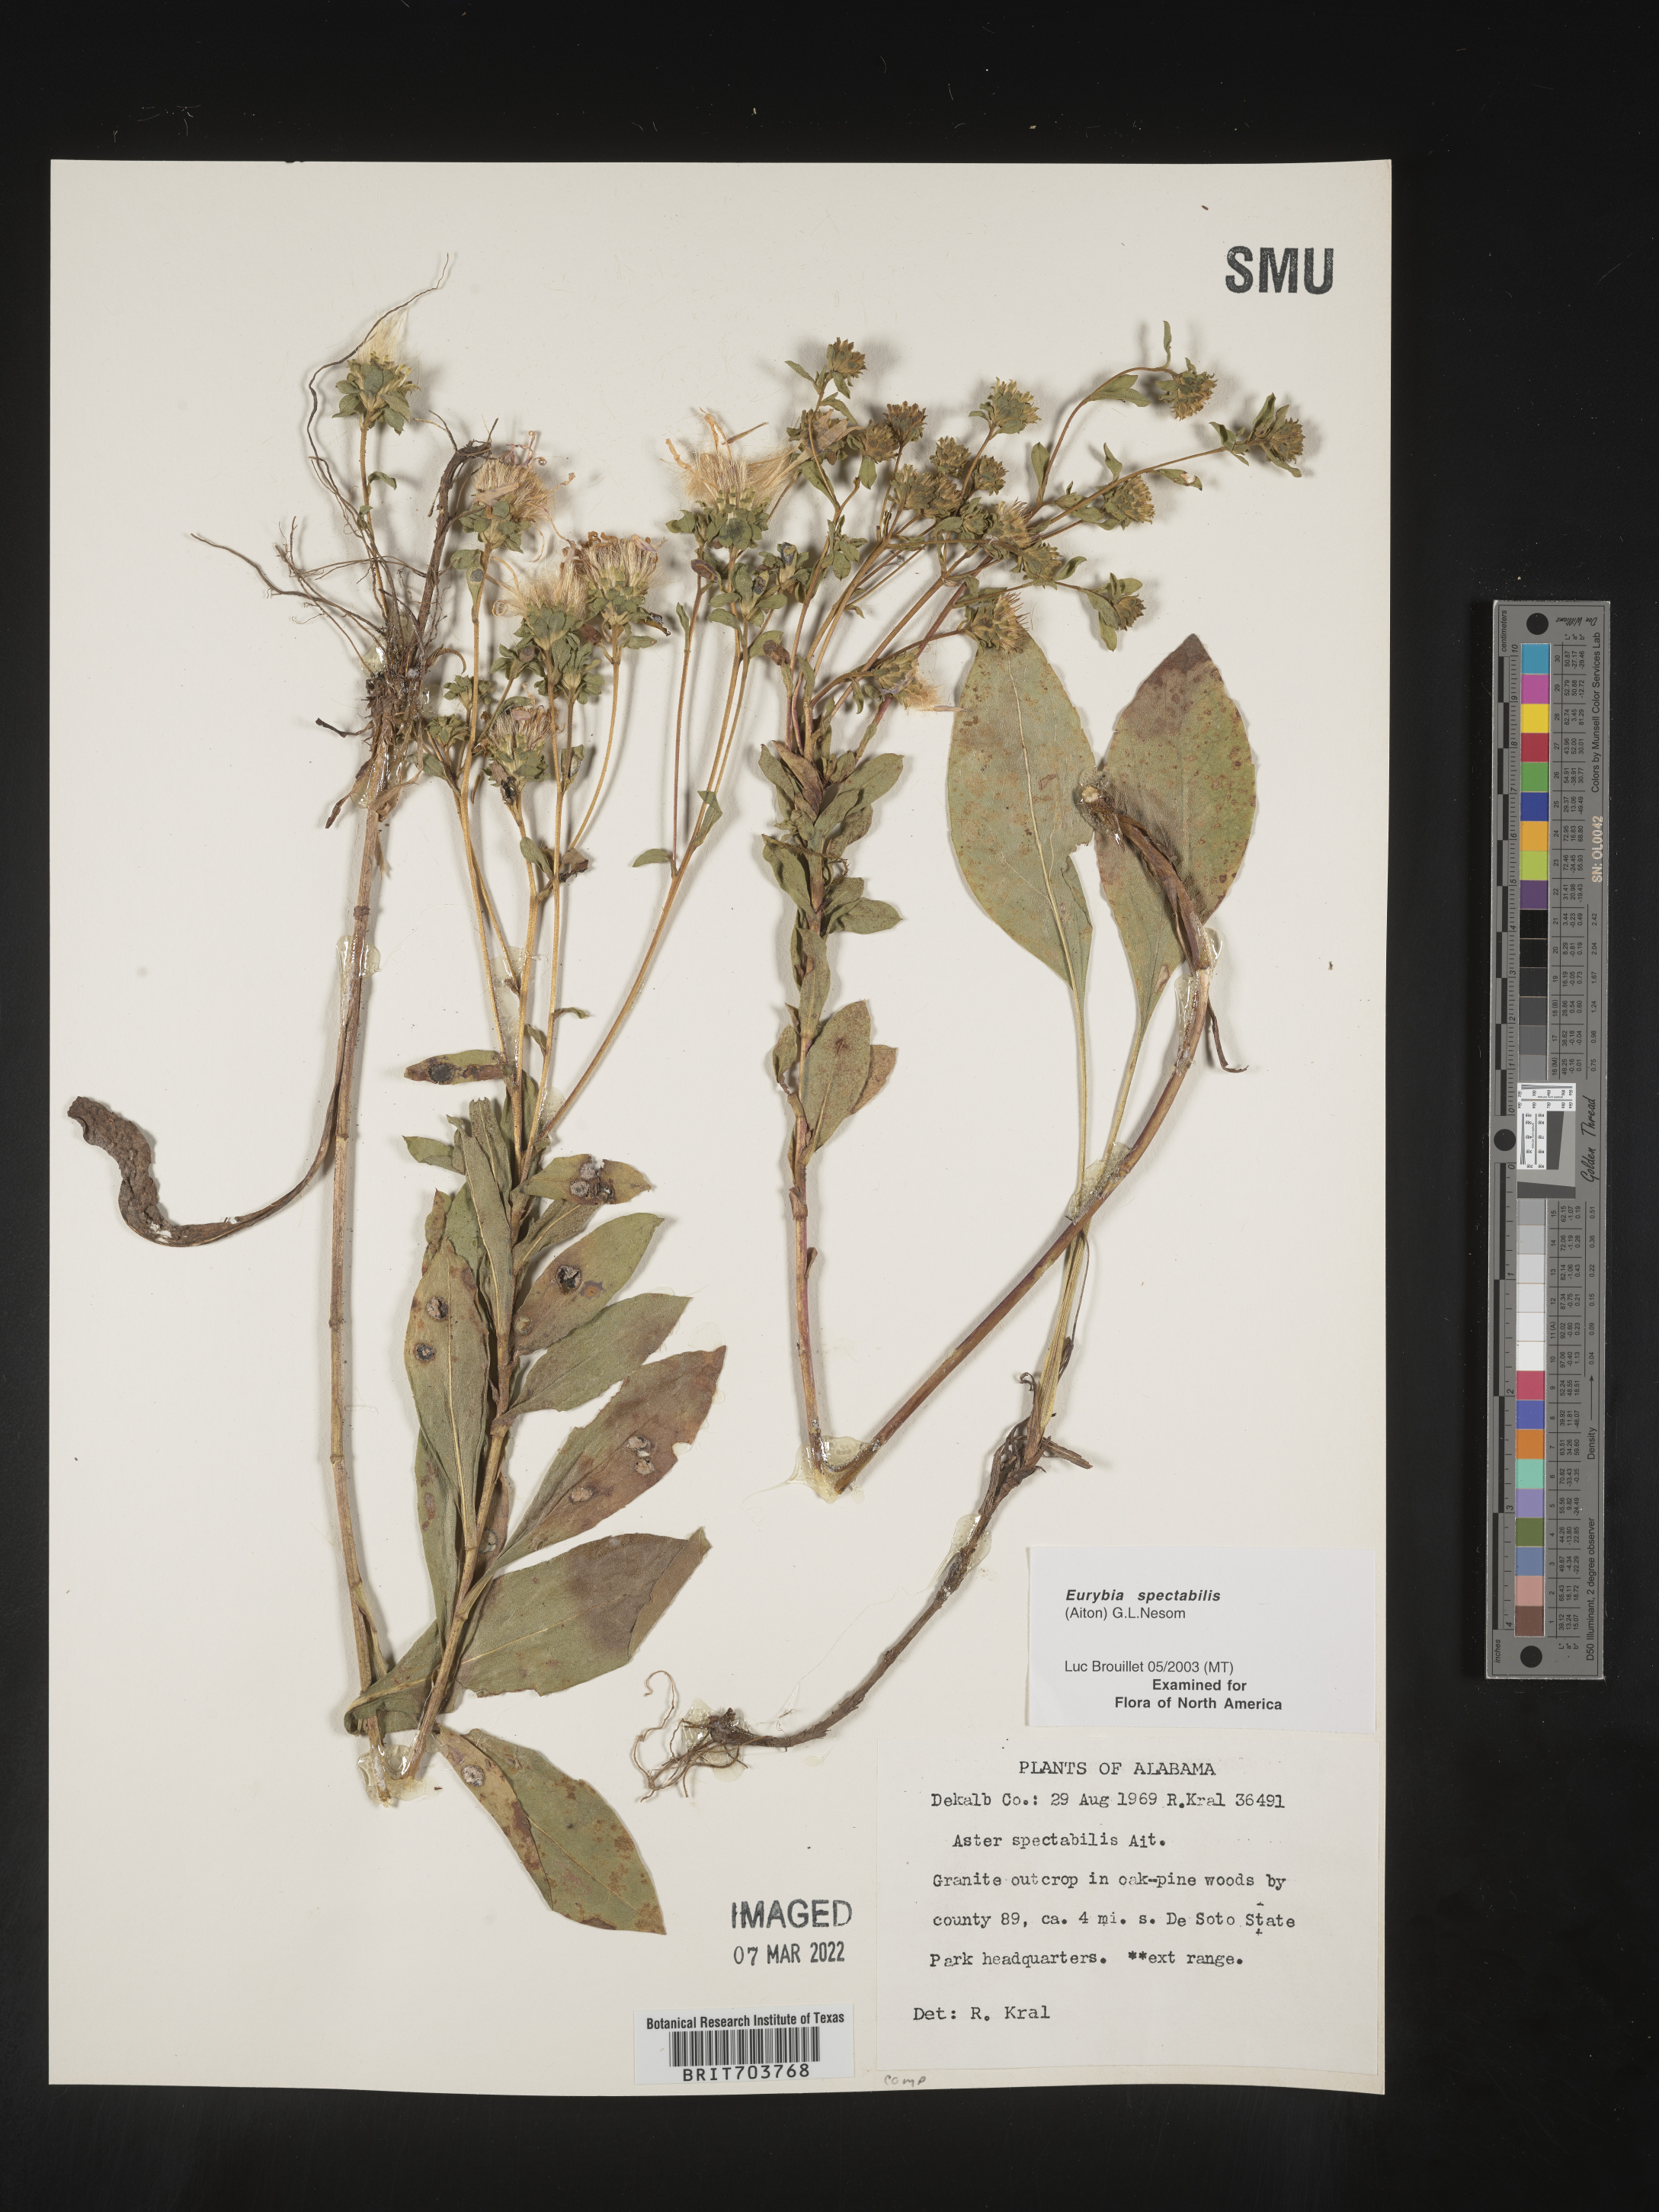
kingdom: Plantae
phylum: Tracheophyta
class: Magnoliopsida
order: Asterales
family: Asteraceae
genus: Eurybia
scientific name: Eurybia spectabilis
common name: Low showy aster
